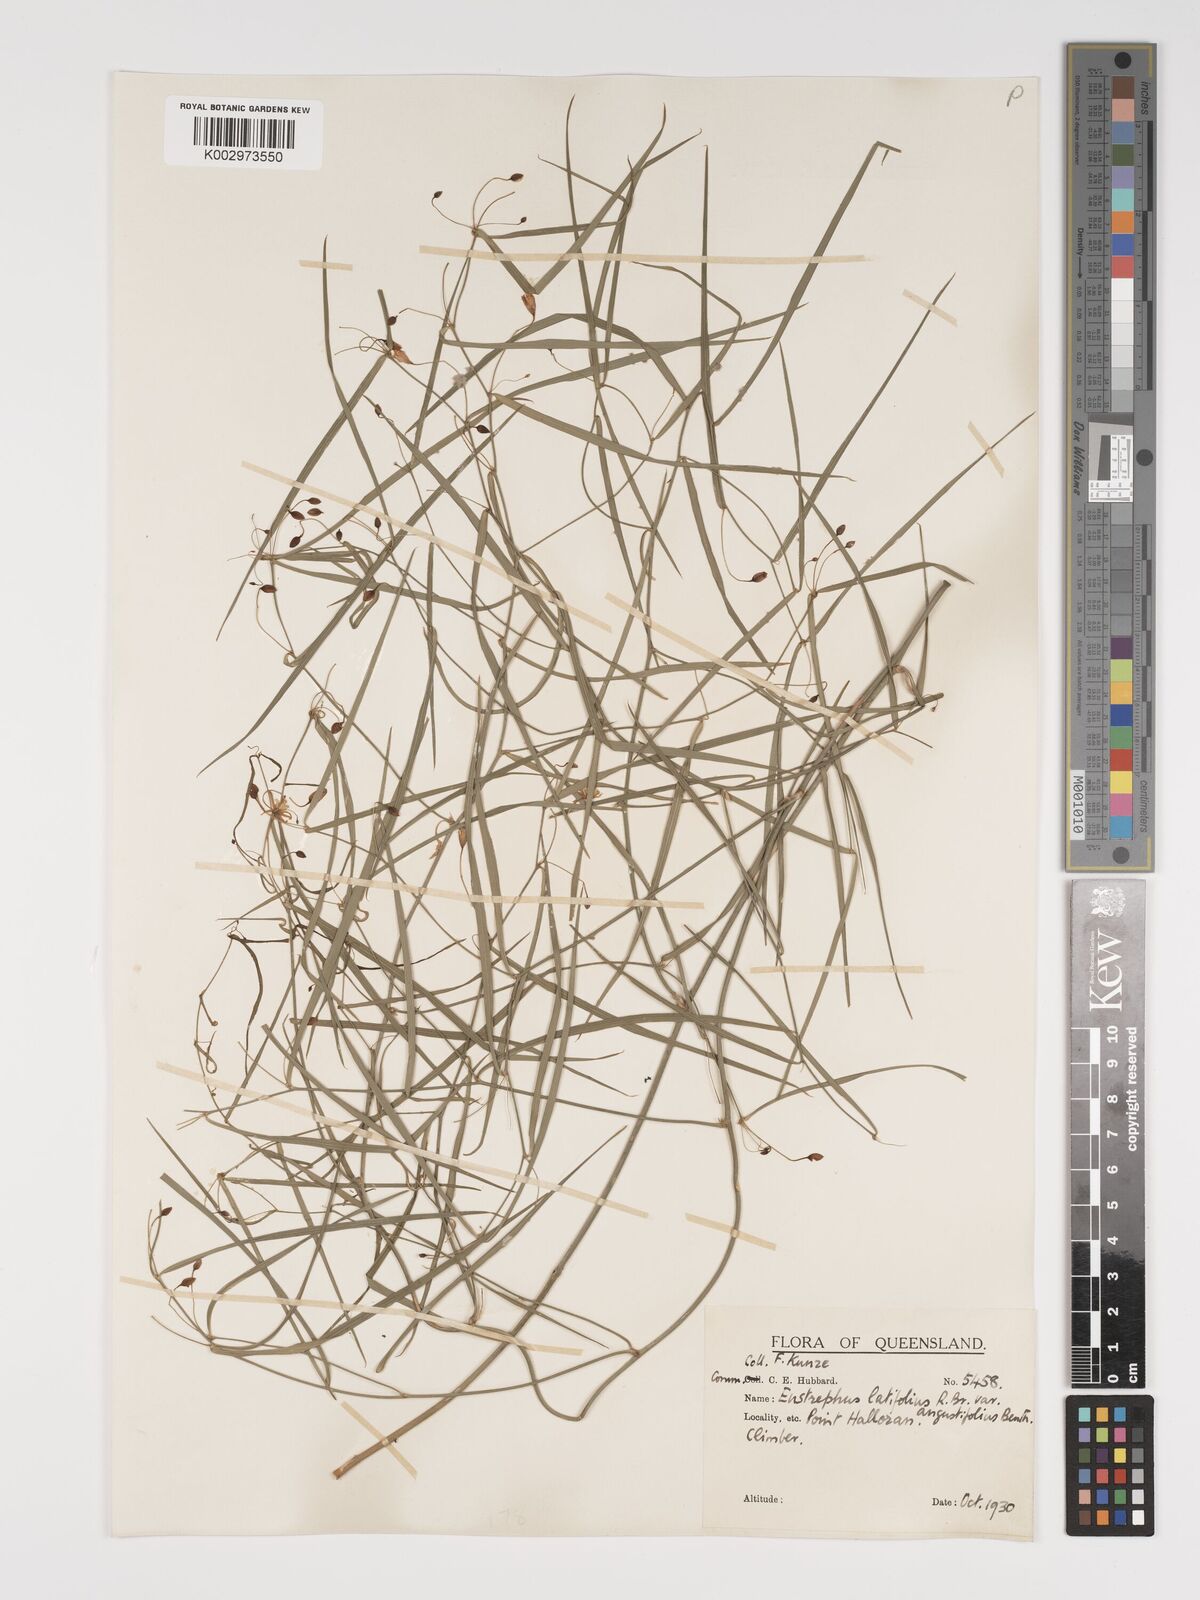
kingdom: Plantae
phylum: Tracheophyta
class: Liliopsida
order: Asparagales
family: Asparagaceae
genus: Eustrephus
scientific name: Eustrephus latifolius
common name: Orangevine
